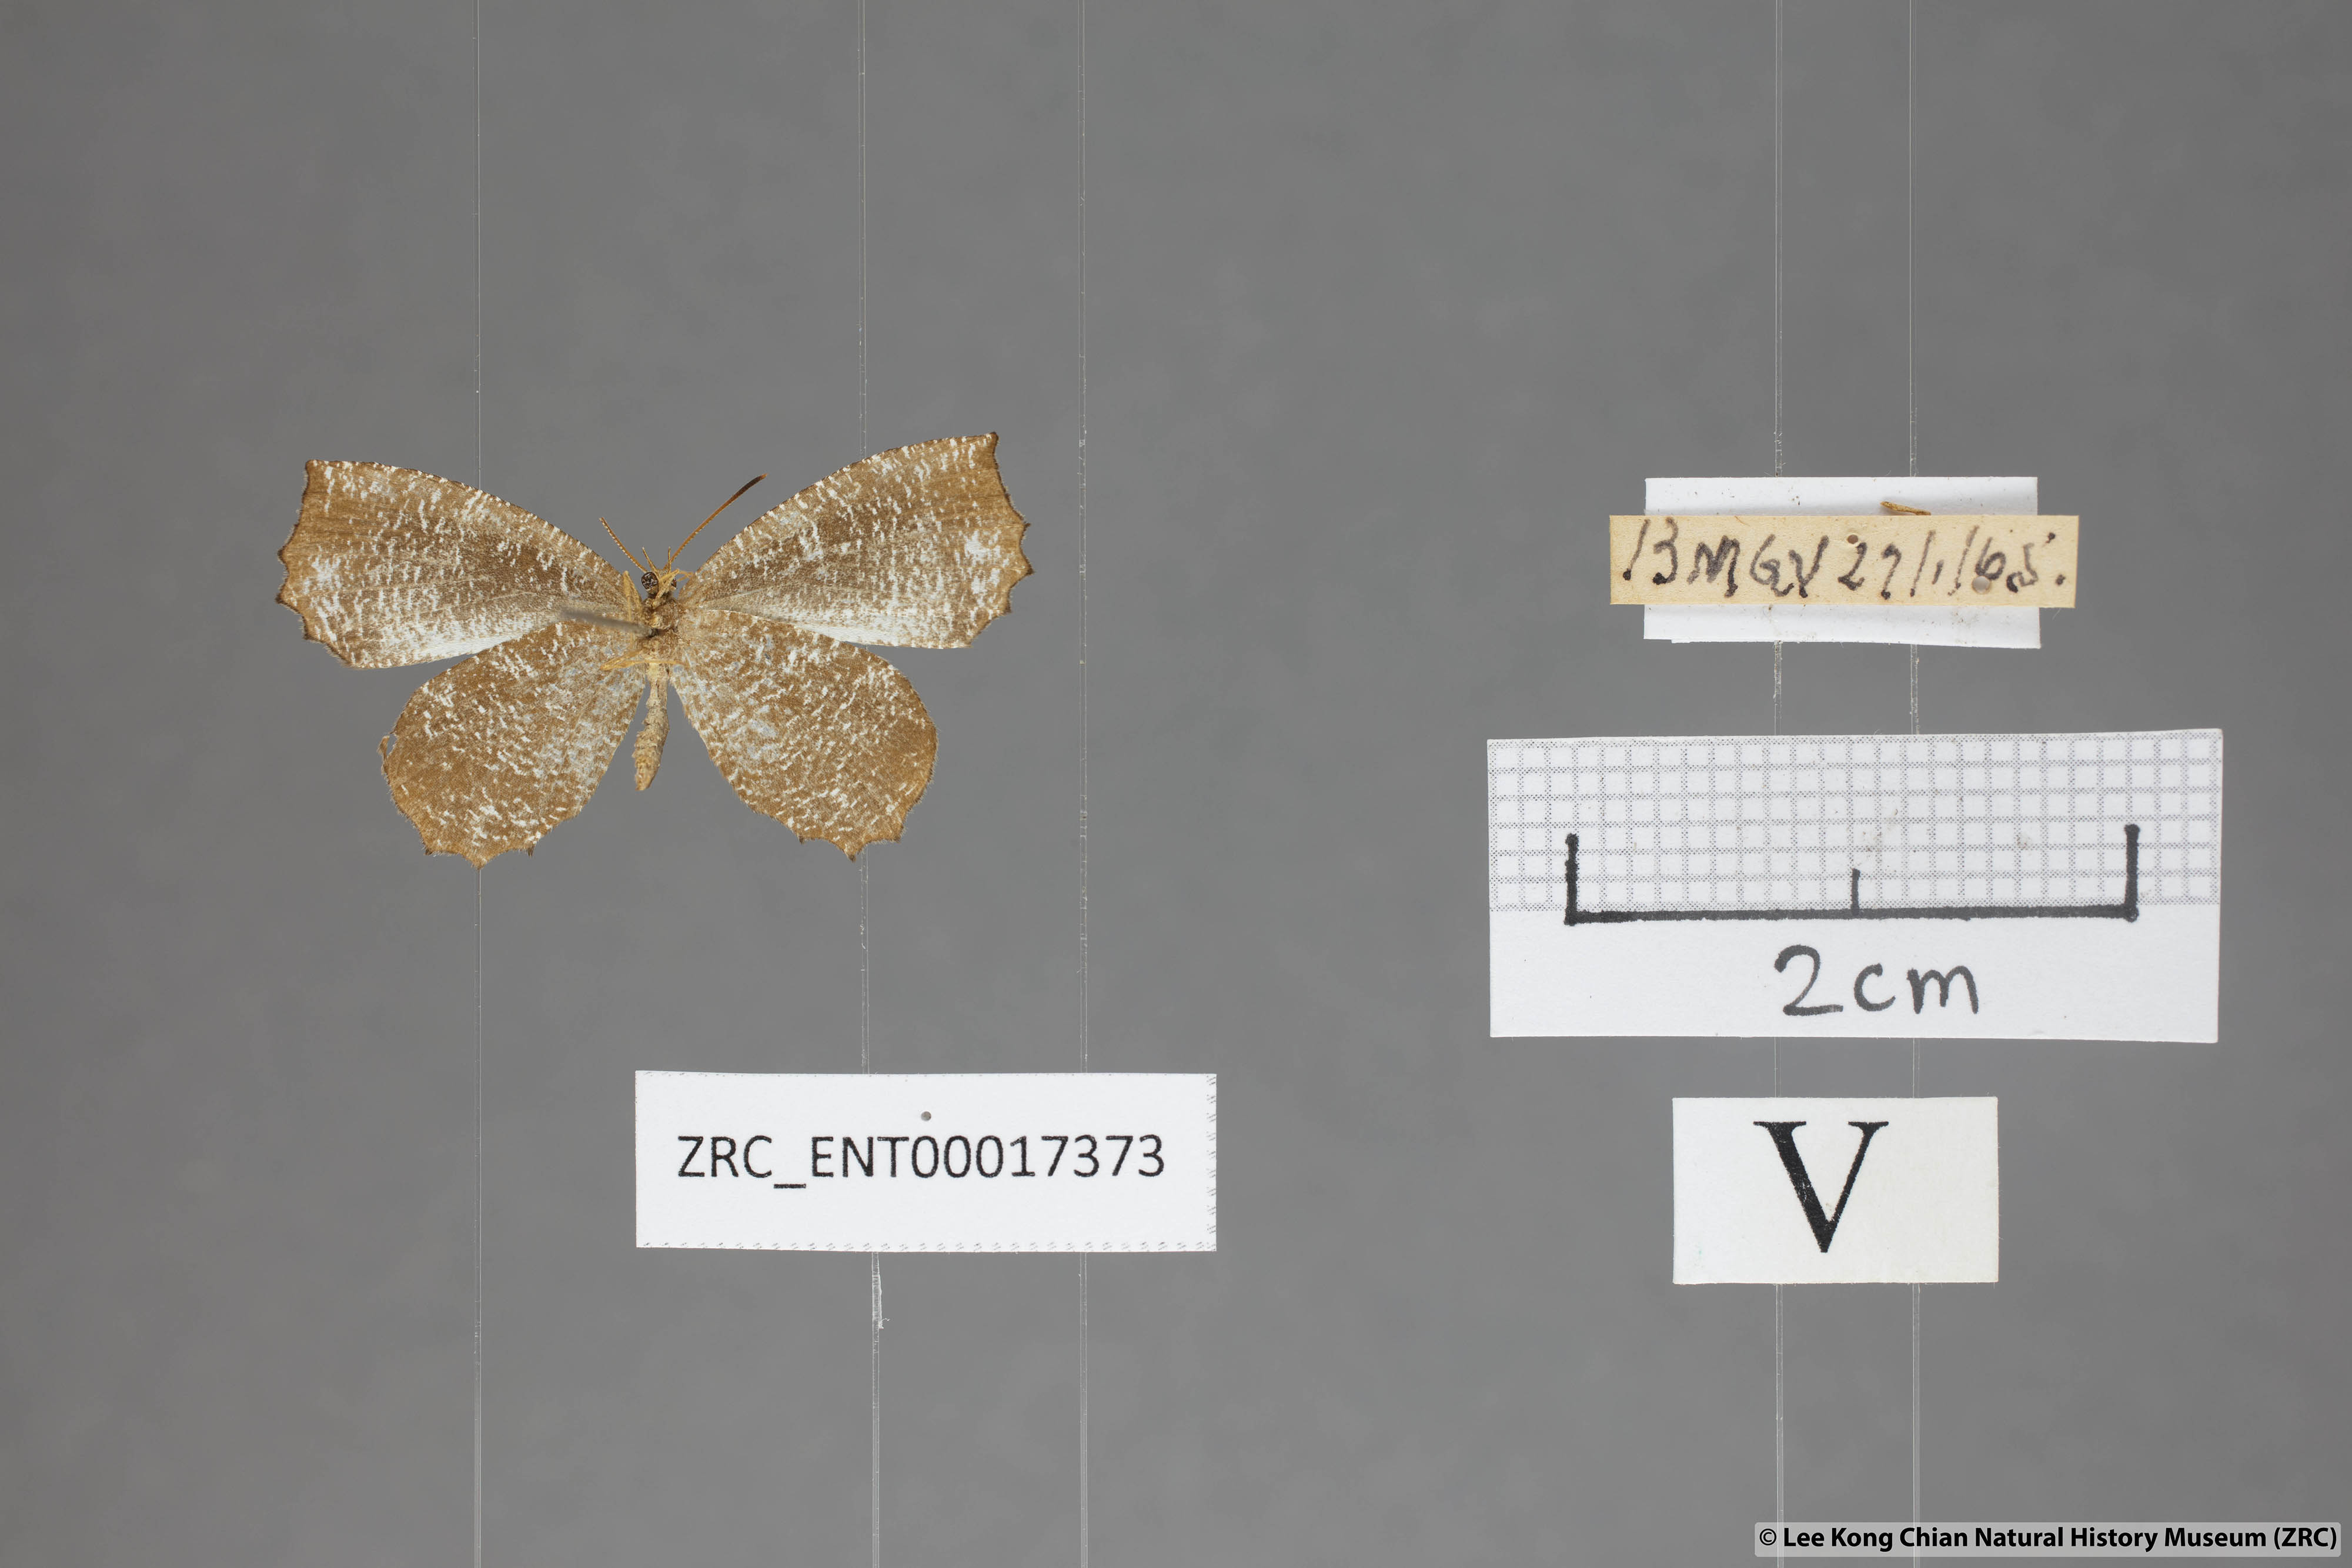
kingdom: Animalia
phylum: Arthropoda
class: Insecta
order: Lepidoptera
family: Lycaenidae
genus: Logania
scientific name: Logania malayica
